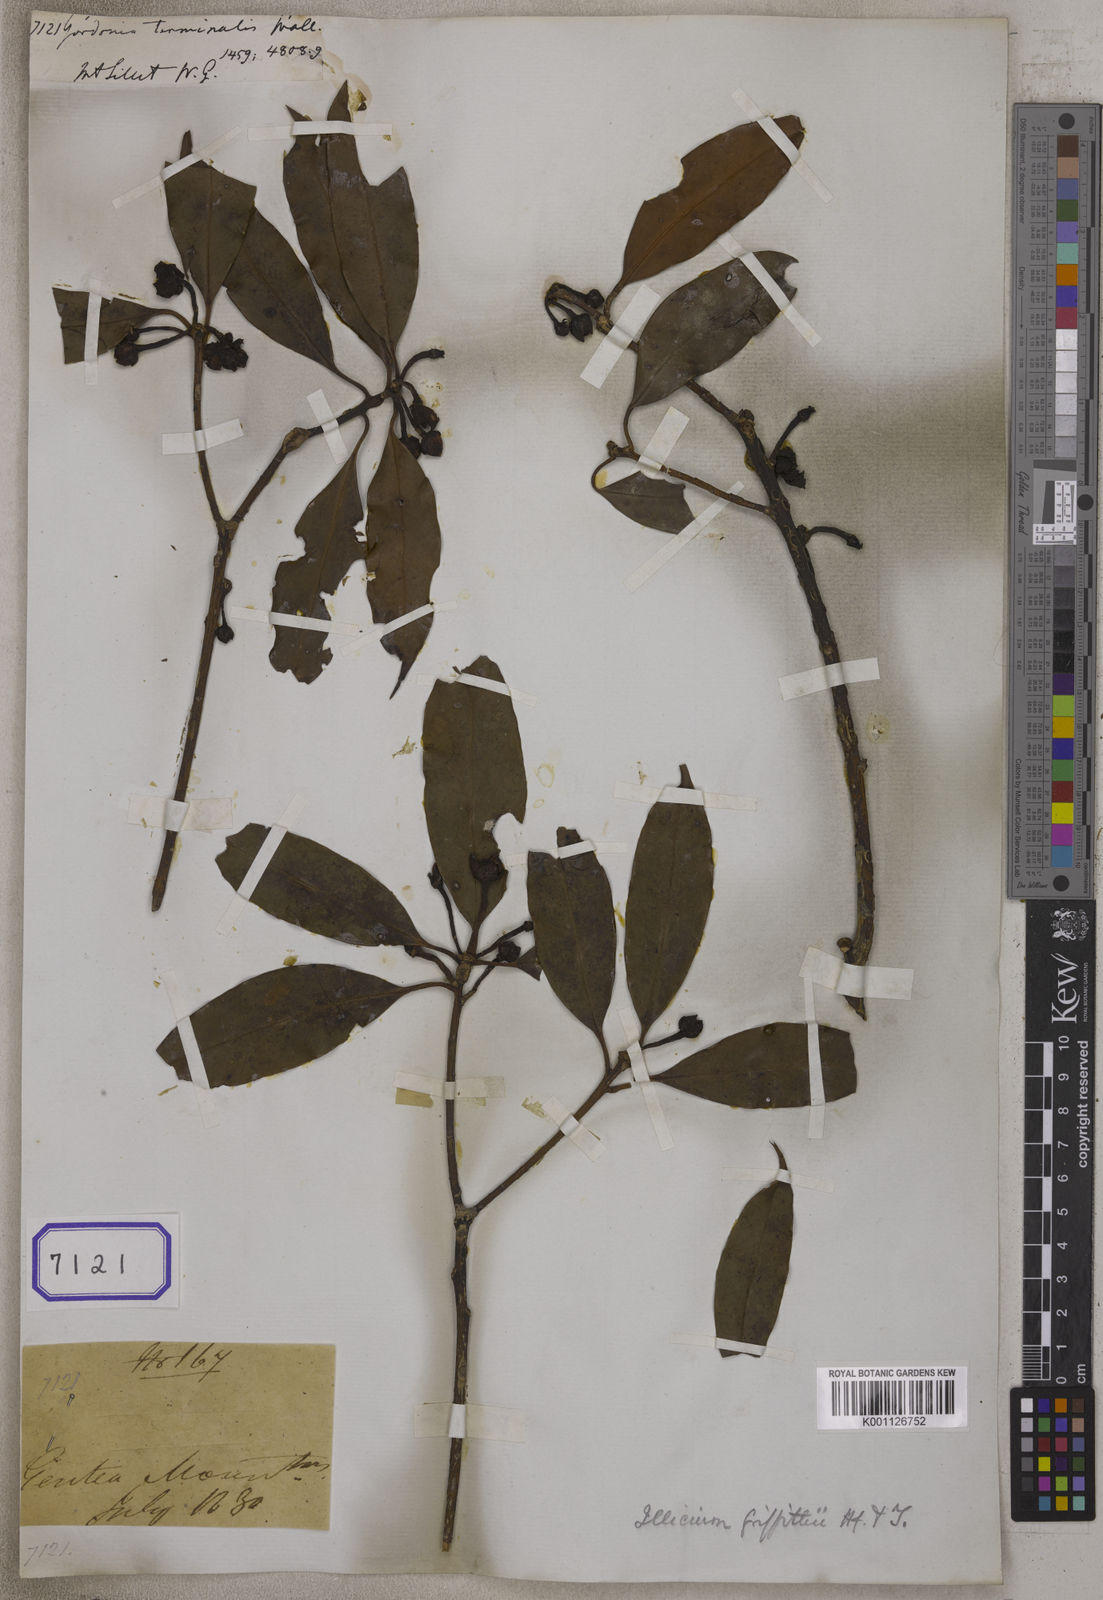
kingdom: Plantae
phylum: Tracheophyta
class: Magnoliopsida
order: Ericales
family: Theaceae
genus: Gordonia
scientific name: Gordonia
